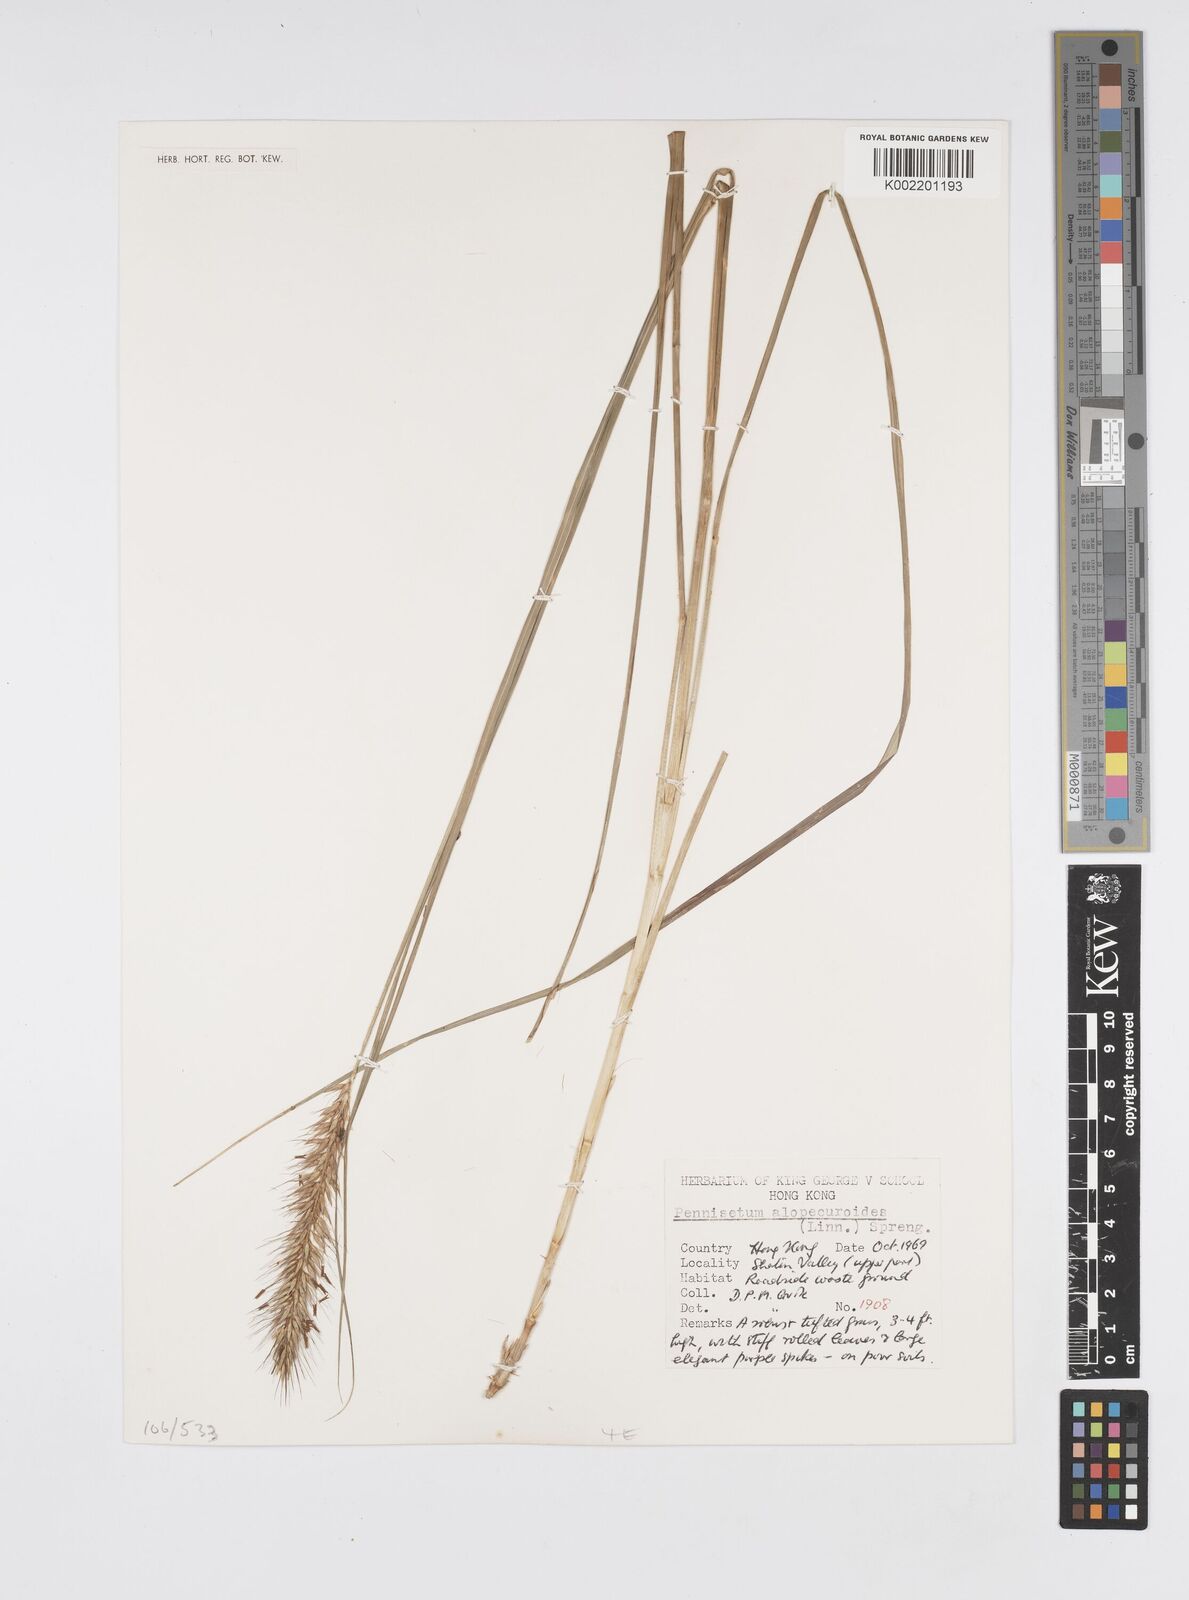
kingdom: Plantae
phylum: Tracheophyta
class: Liliopsida
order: Poales
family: Poaceae
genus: Cenchrus
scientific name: Cenchrus alopecuroides
